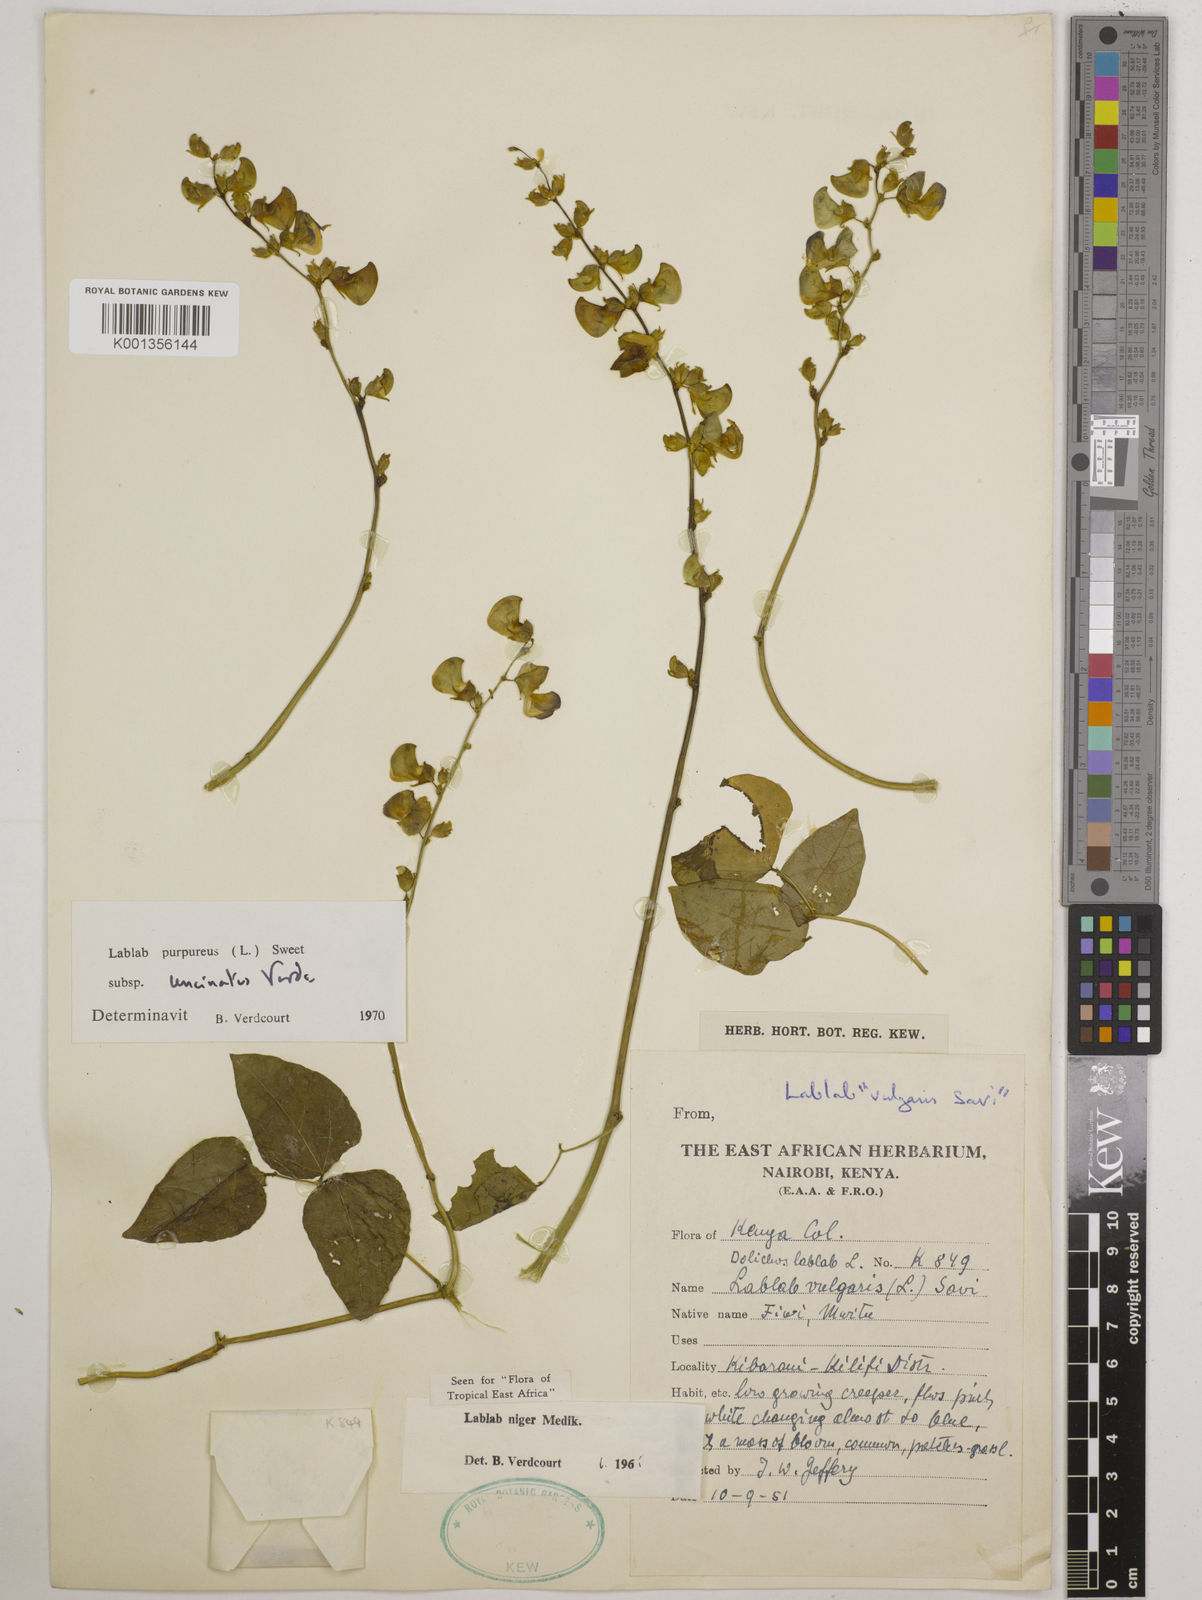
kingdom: Plantae
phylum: Tracheophyta
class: Magnoliopsida
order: Fabales
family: Fabaceae
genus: Lablab
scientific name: Lablab purpureus
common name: Lablab-bean
